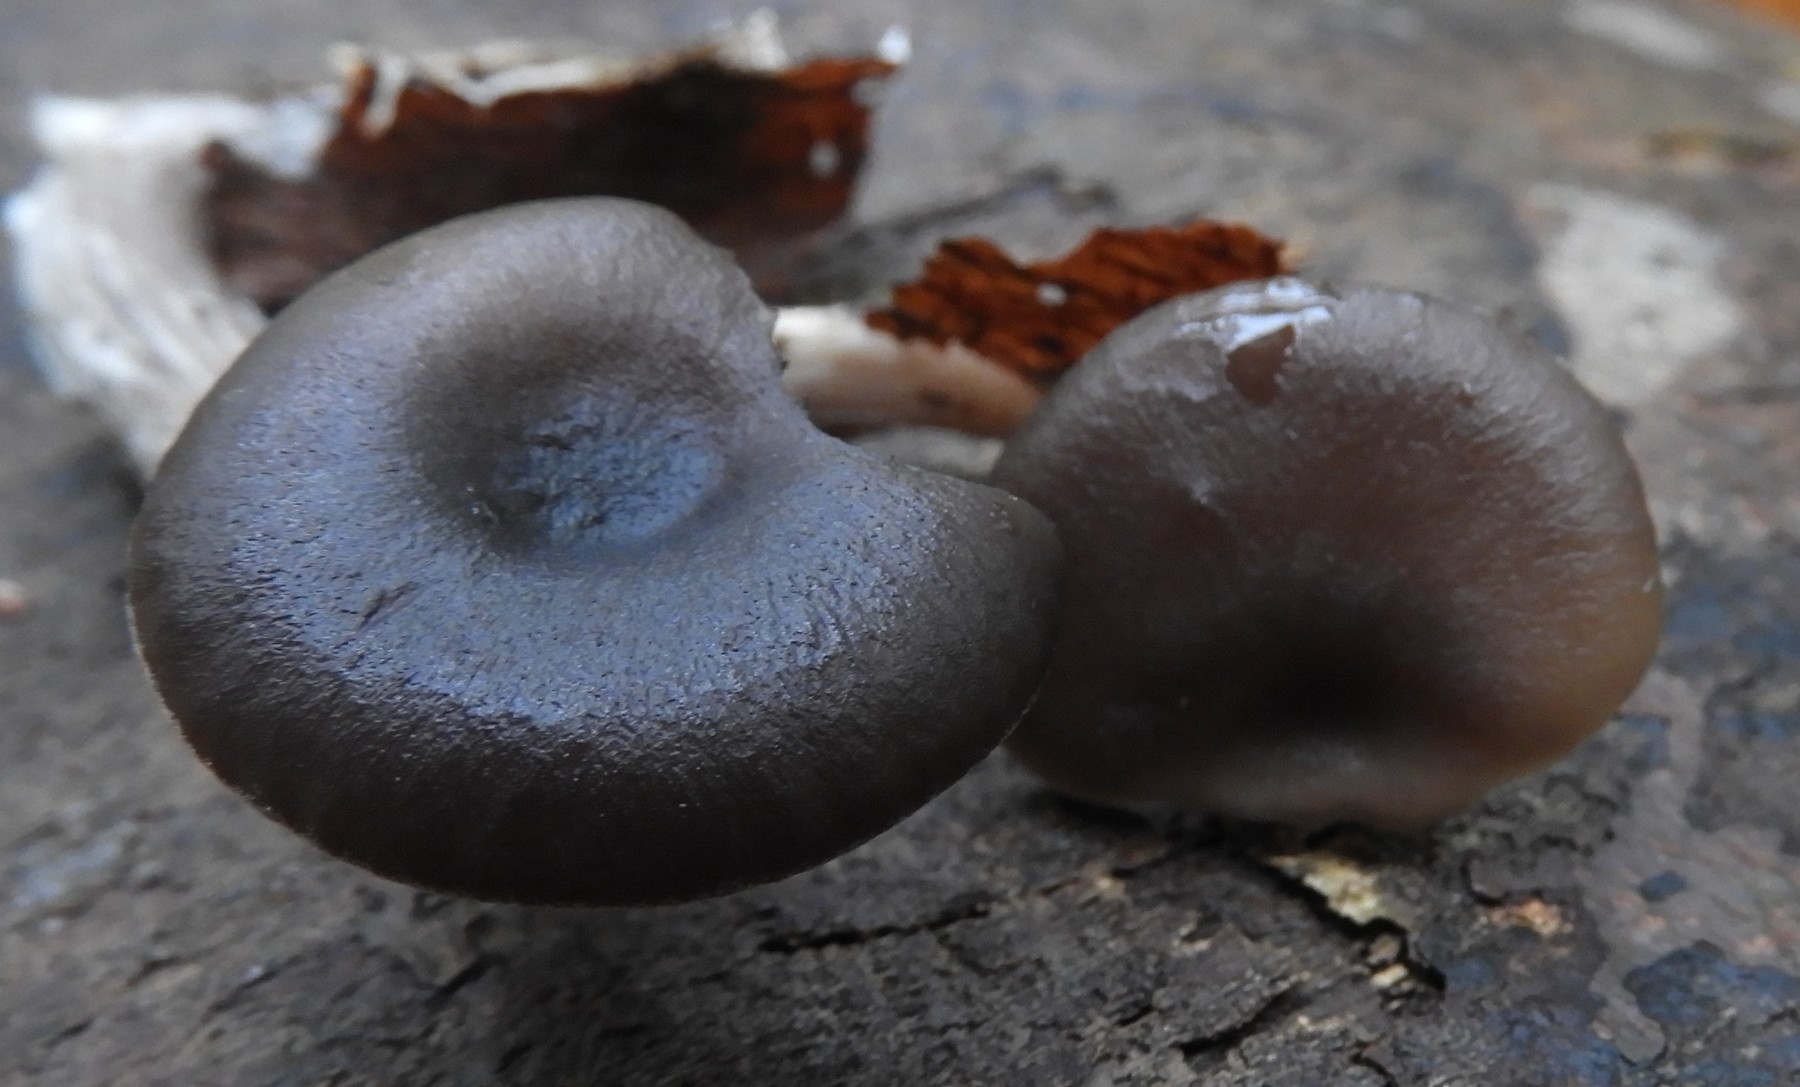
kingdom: Fungi
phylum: Basidiomycota
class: Agaricomycetes
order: Agaricales
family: Pseudoclitocybaceae
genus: Pseudoclitocybe
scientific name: Pseudoclitocybe cyathiformis
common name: almindelig bægertragthat
